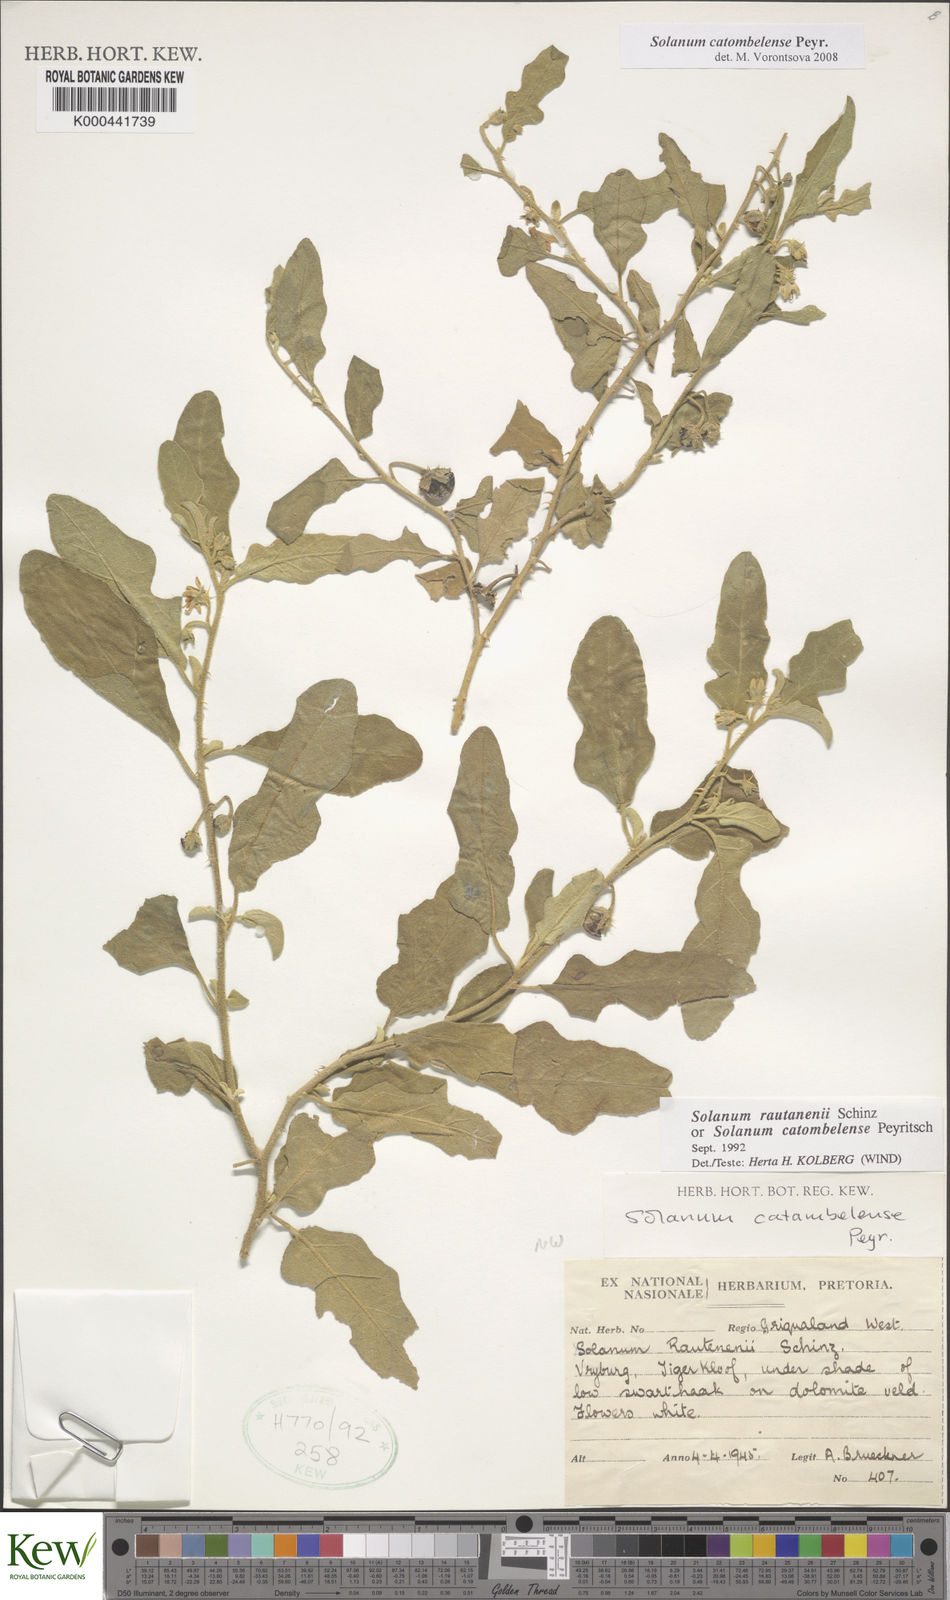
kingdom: Plantae
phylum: Tracheophyta
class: Magnoliopsida
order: Solanales
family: Solanaceae
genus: Solanum
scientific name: Solanum catombelense
